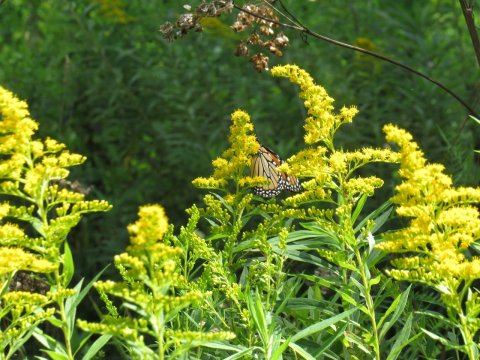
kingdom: Animalia
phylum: Arthropoda
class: Insecta
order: Lepidoptera
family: Nymphalidae
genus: Danaus
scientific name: Danaus plexippus
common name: Monarch
